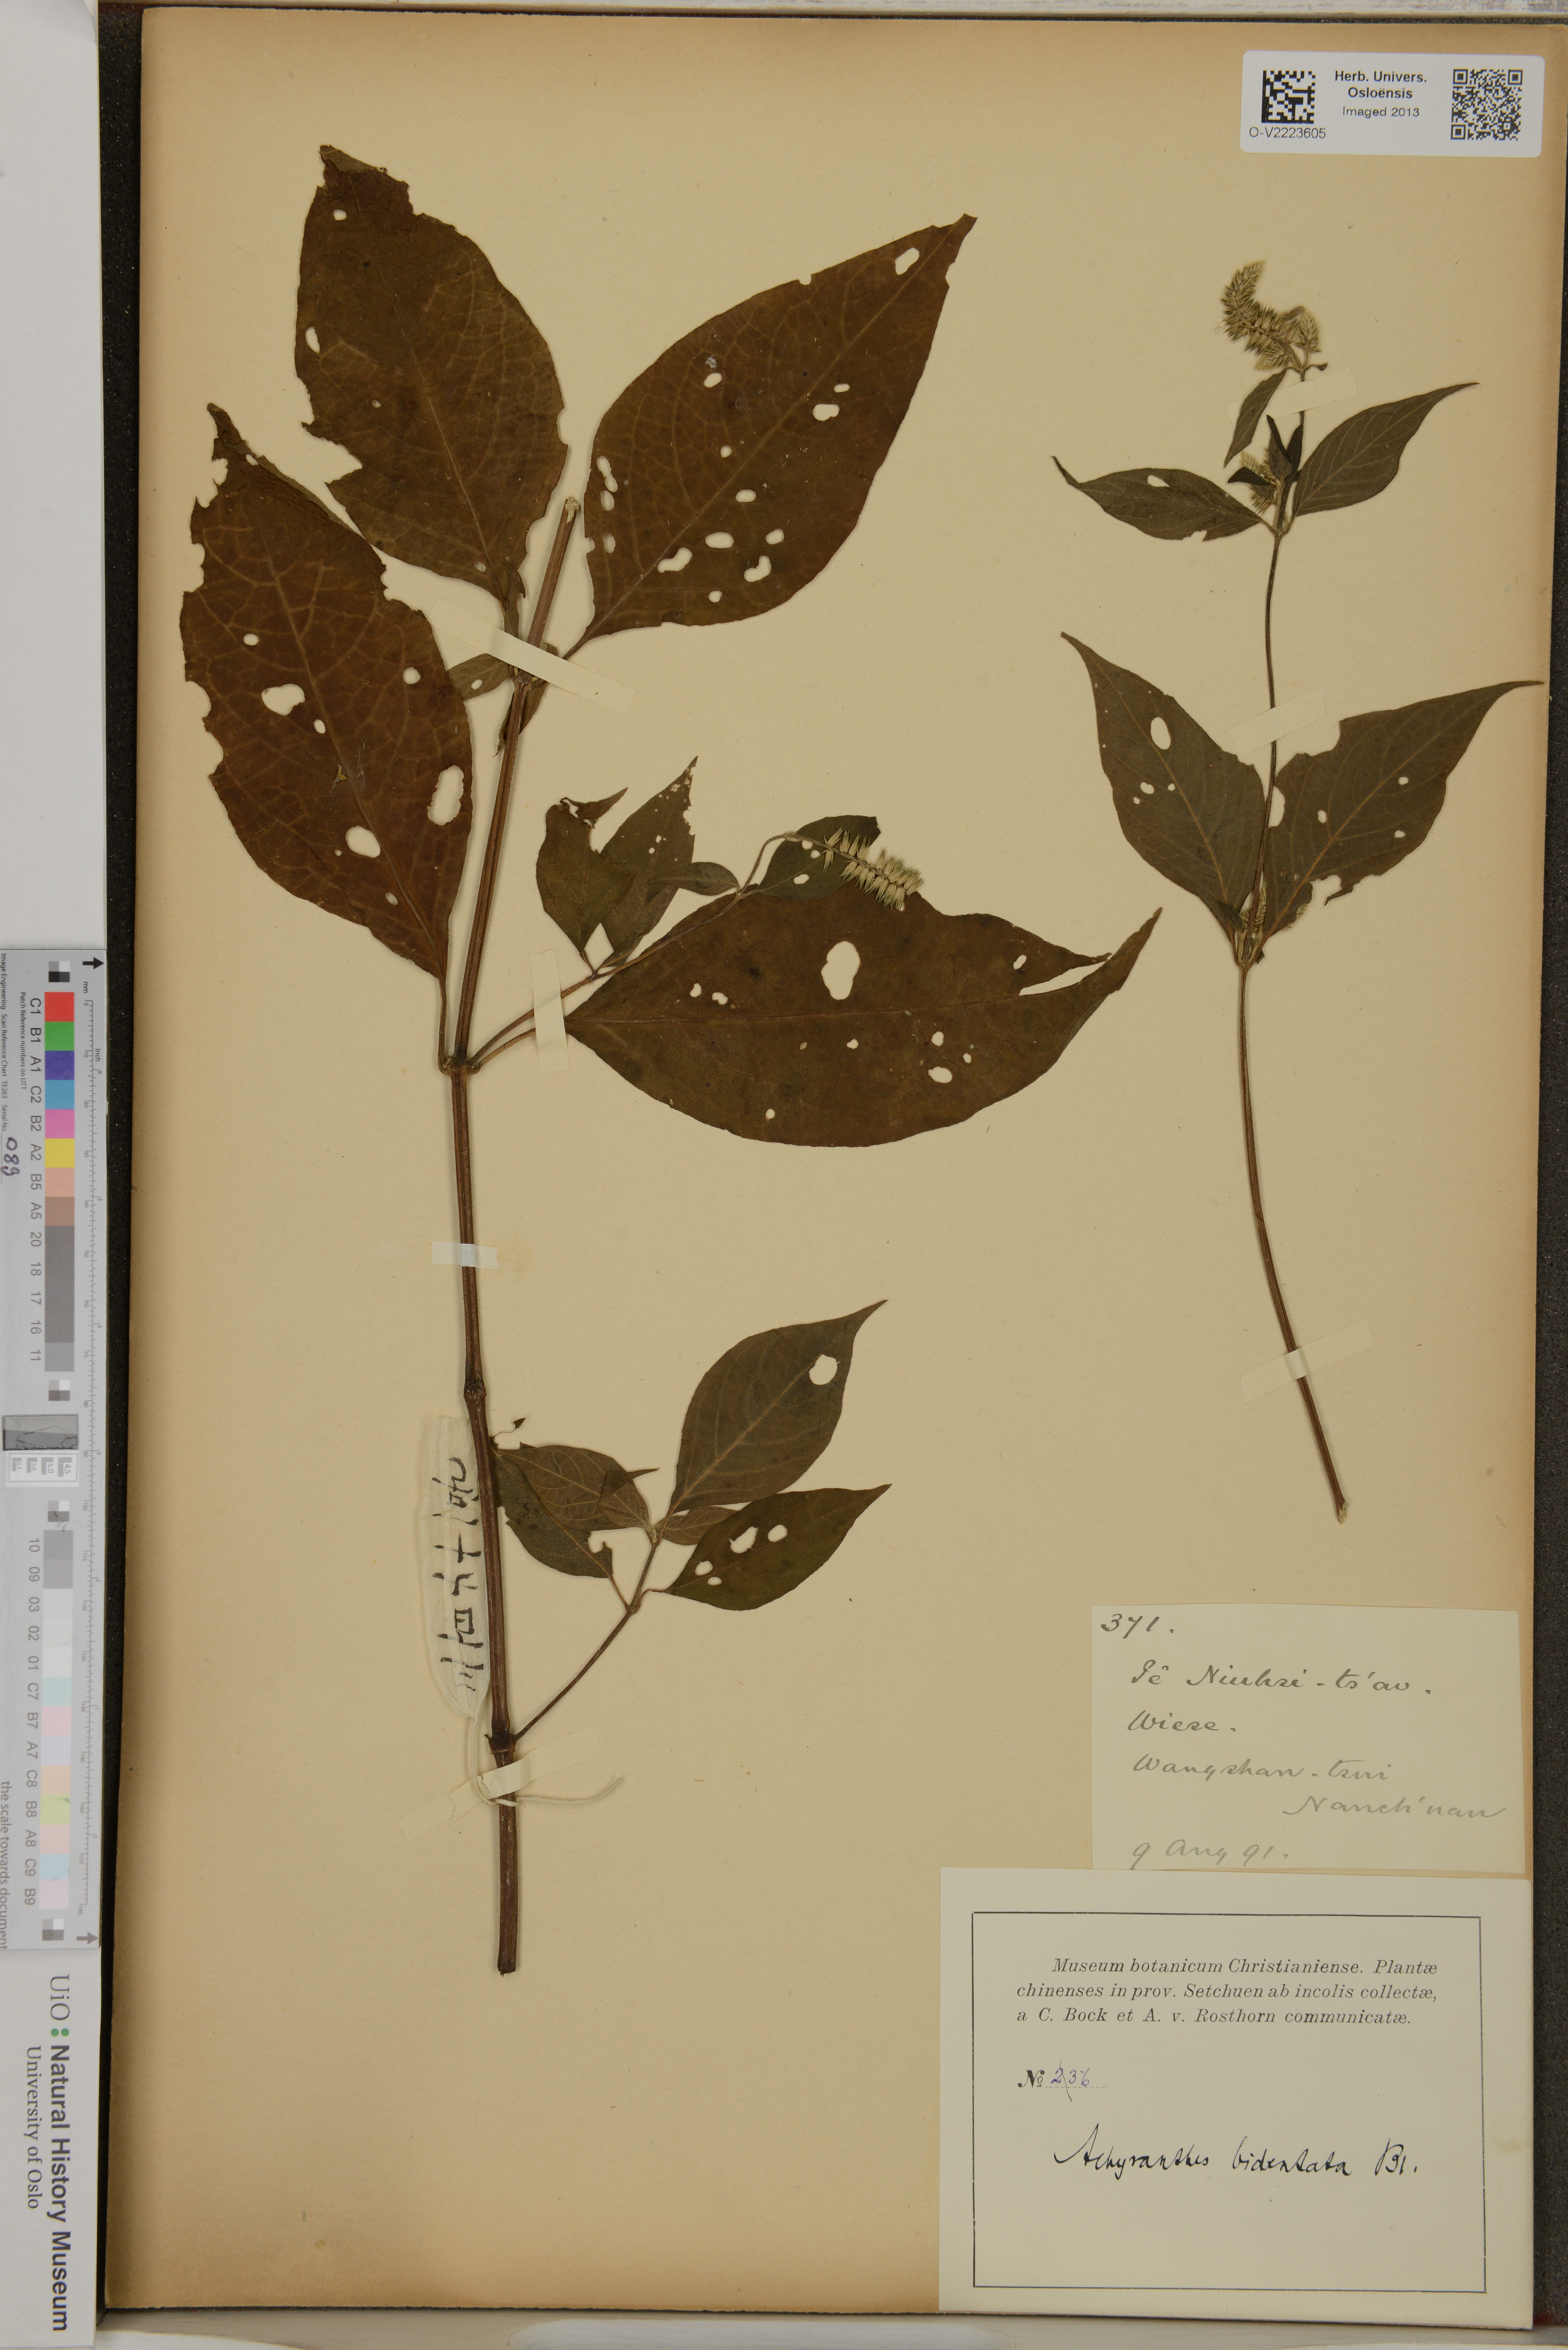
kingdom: Plantae
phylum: Tracheophyta
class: Magnoliopsida
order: Caryophyllales
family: Amaranthaceae
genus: Achyranthes
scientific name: Achyranthes bidentata
